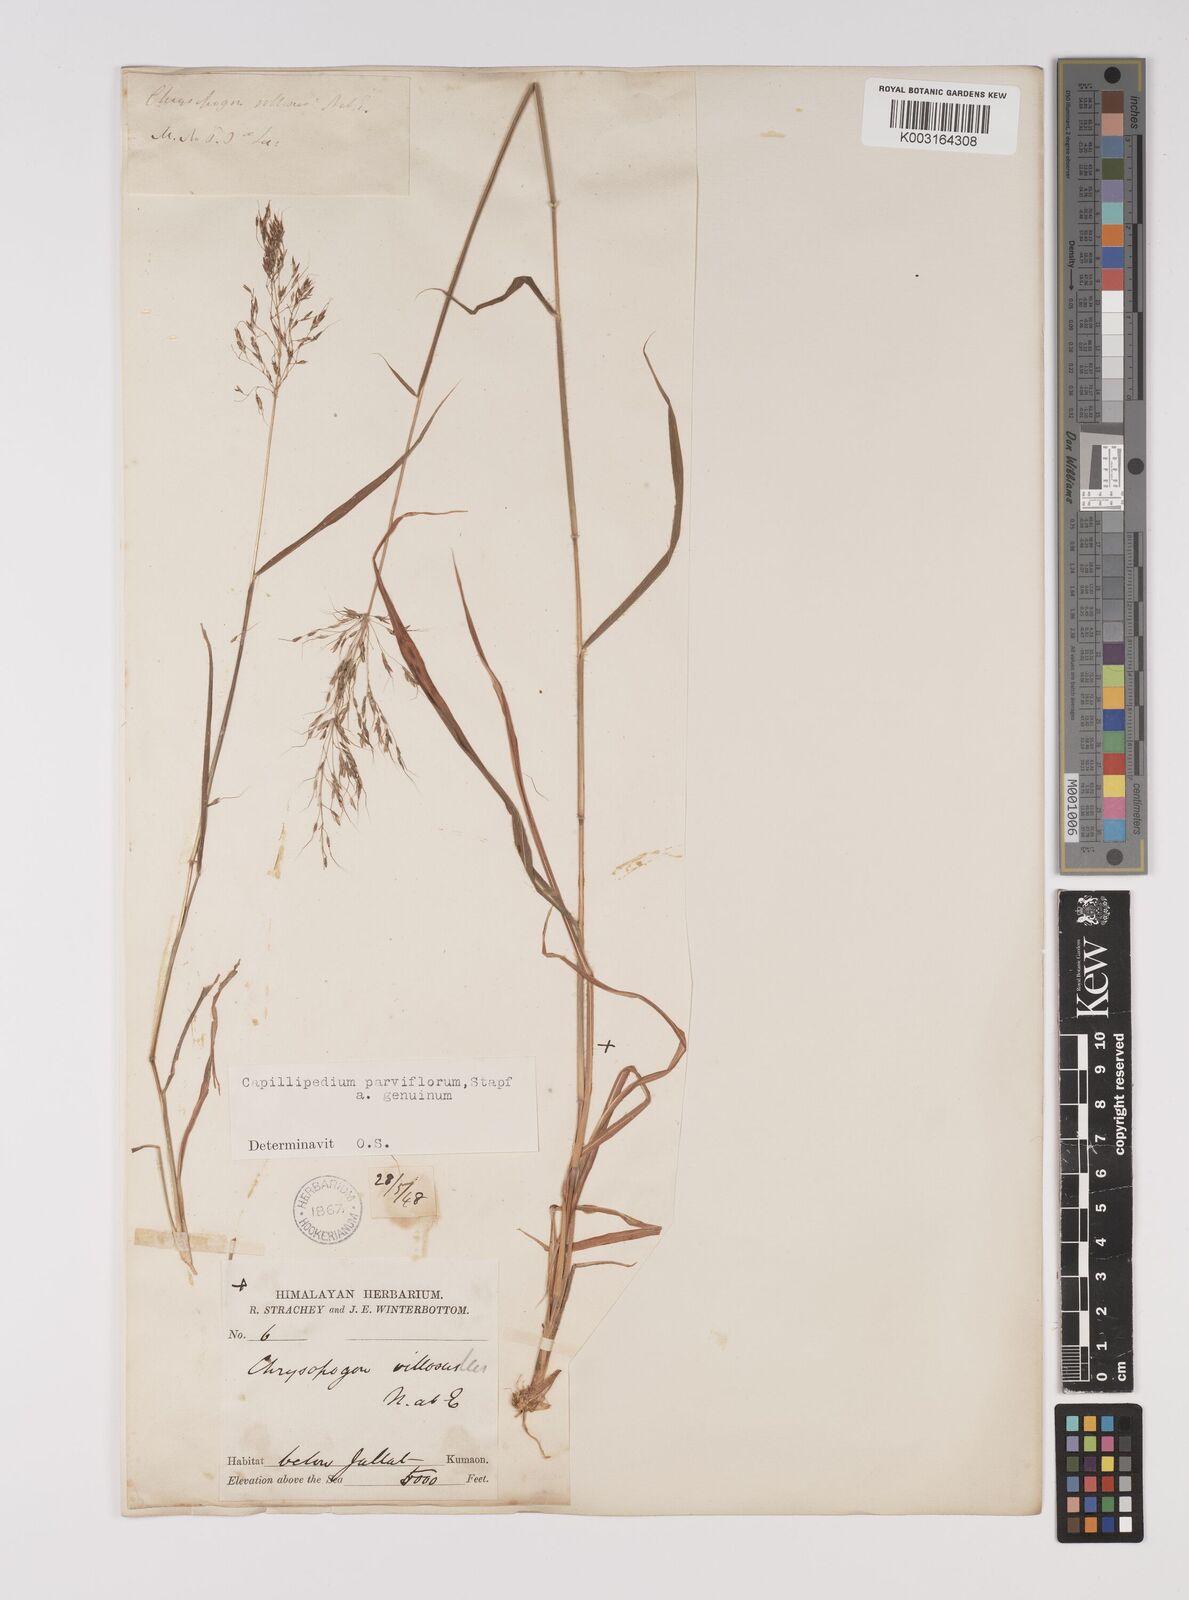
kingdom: Plantae
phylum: Tracheophyta
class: Liliopsida
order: Poales
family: Poaceae
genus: Capillipedium
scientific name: Capillipedium parviflorum
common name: Golden-beard
